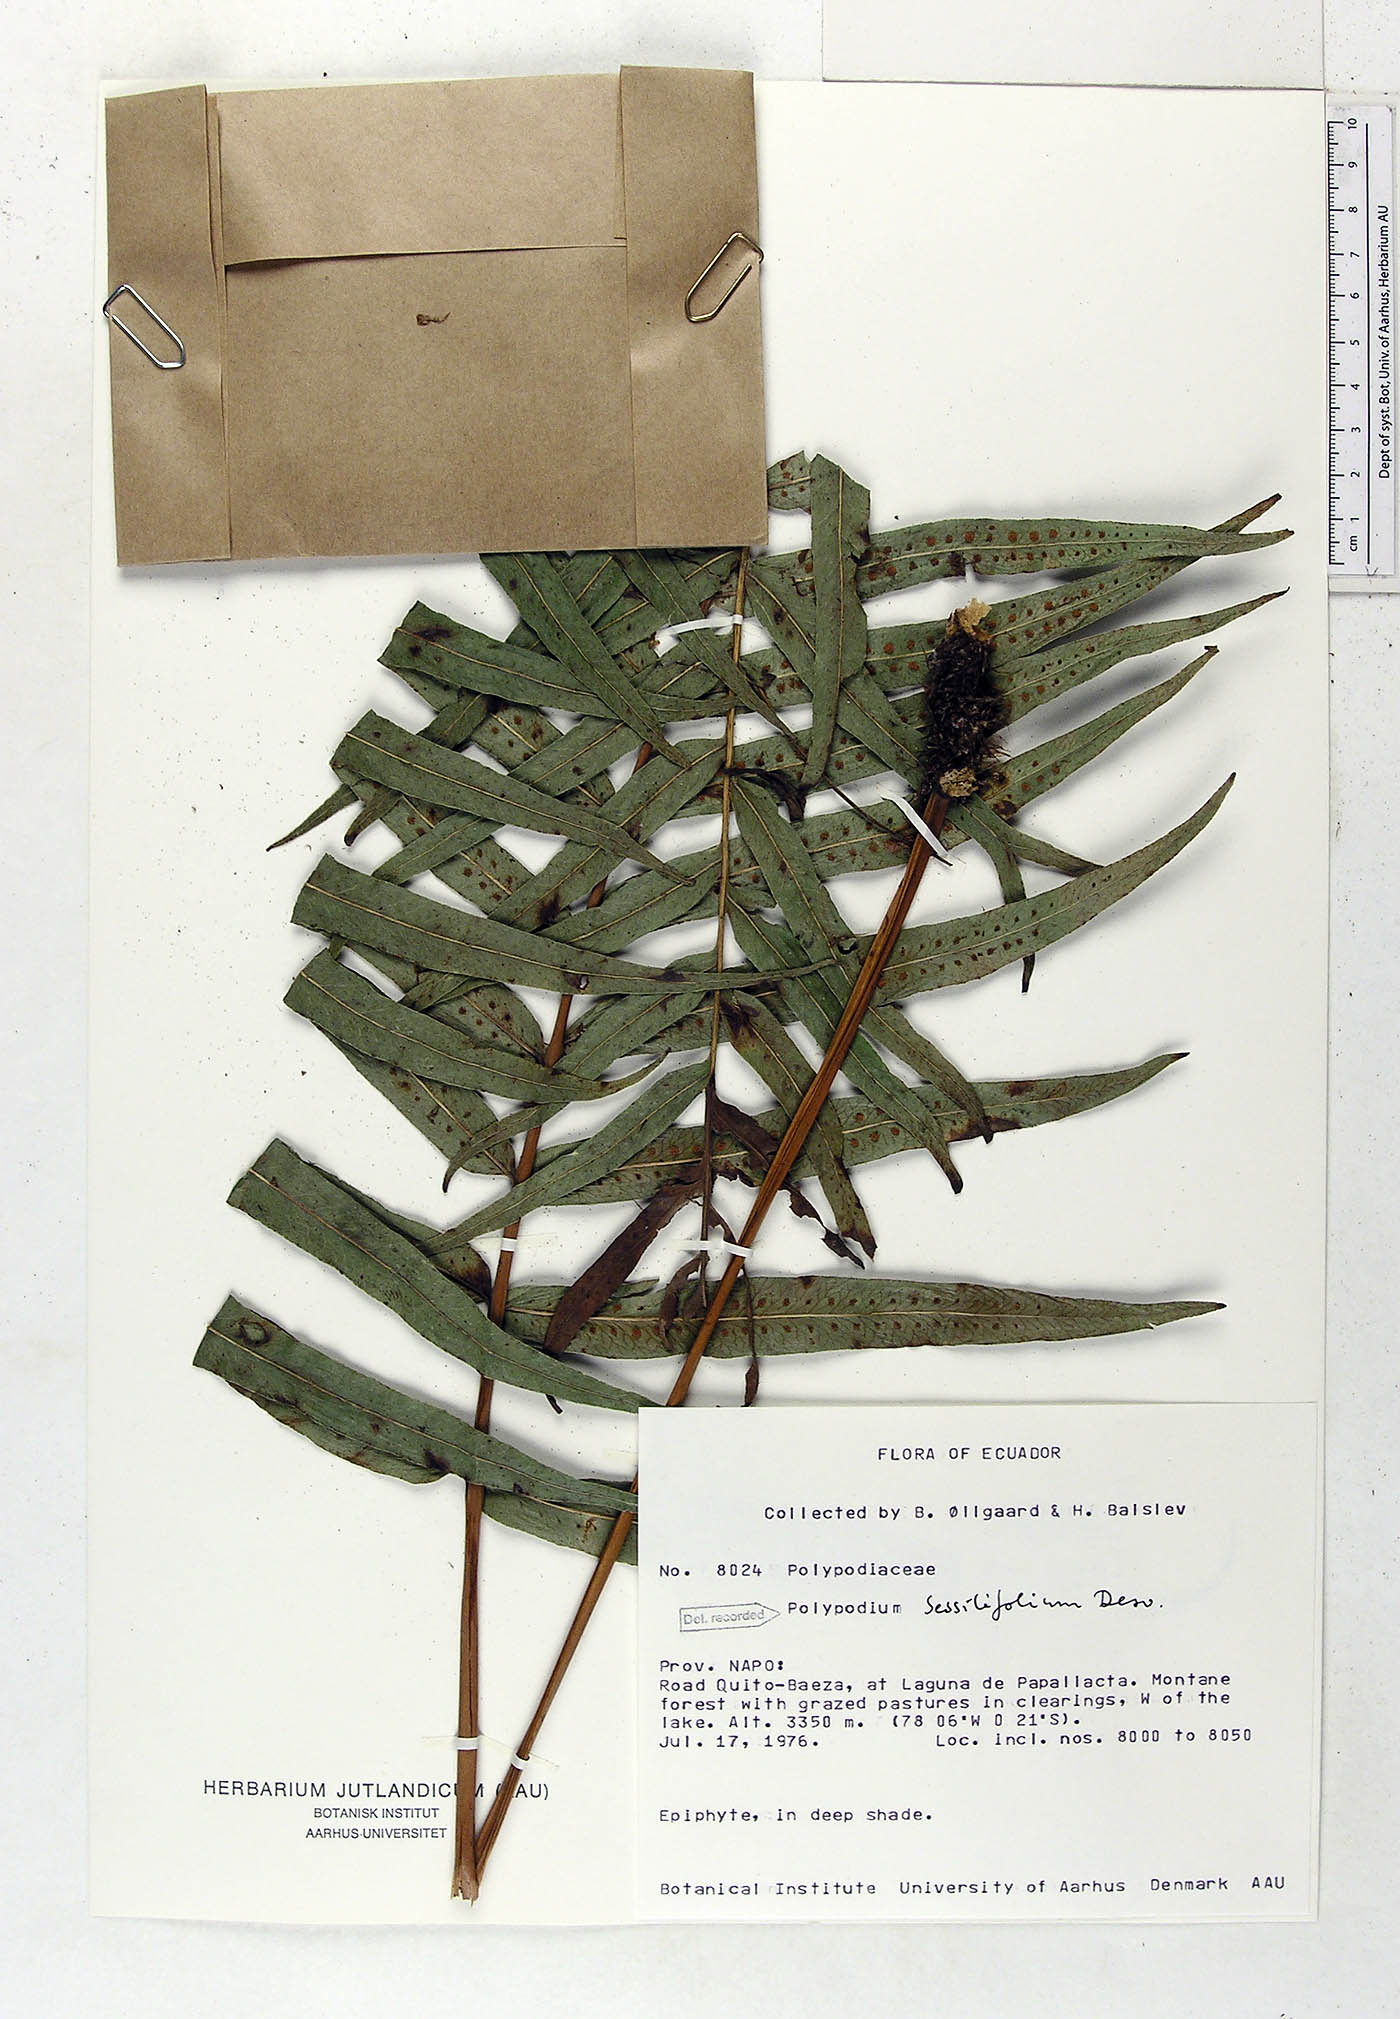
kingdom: Plantae
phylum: Tracheophyta
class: Polypodiopsida
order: Polypodiales
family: Polypodiaceae
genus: Serpocaulon
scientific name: Serpocaulon sessilifolium
